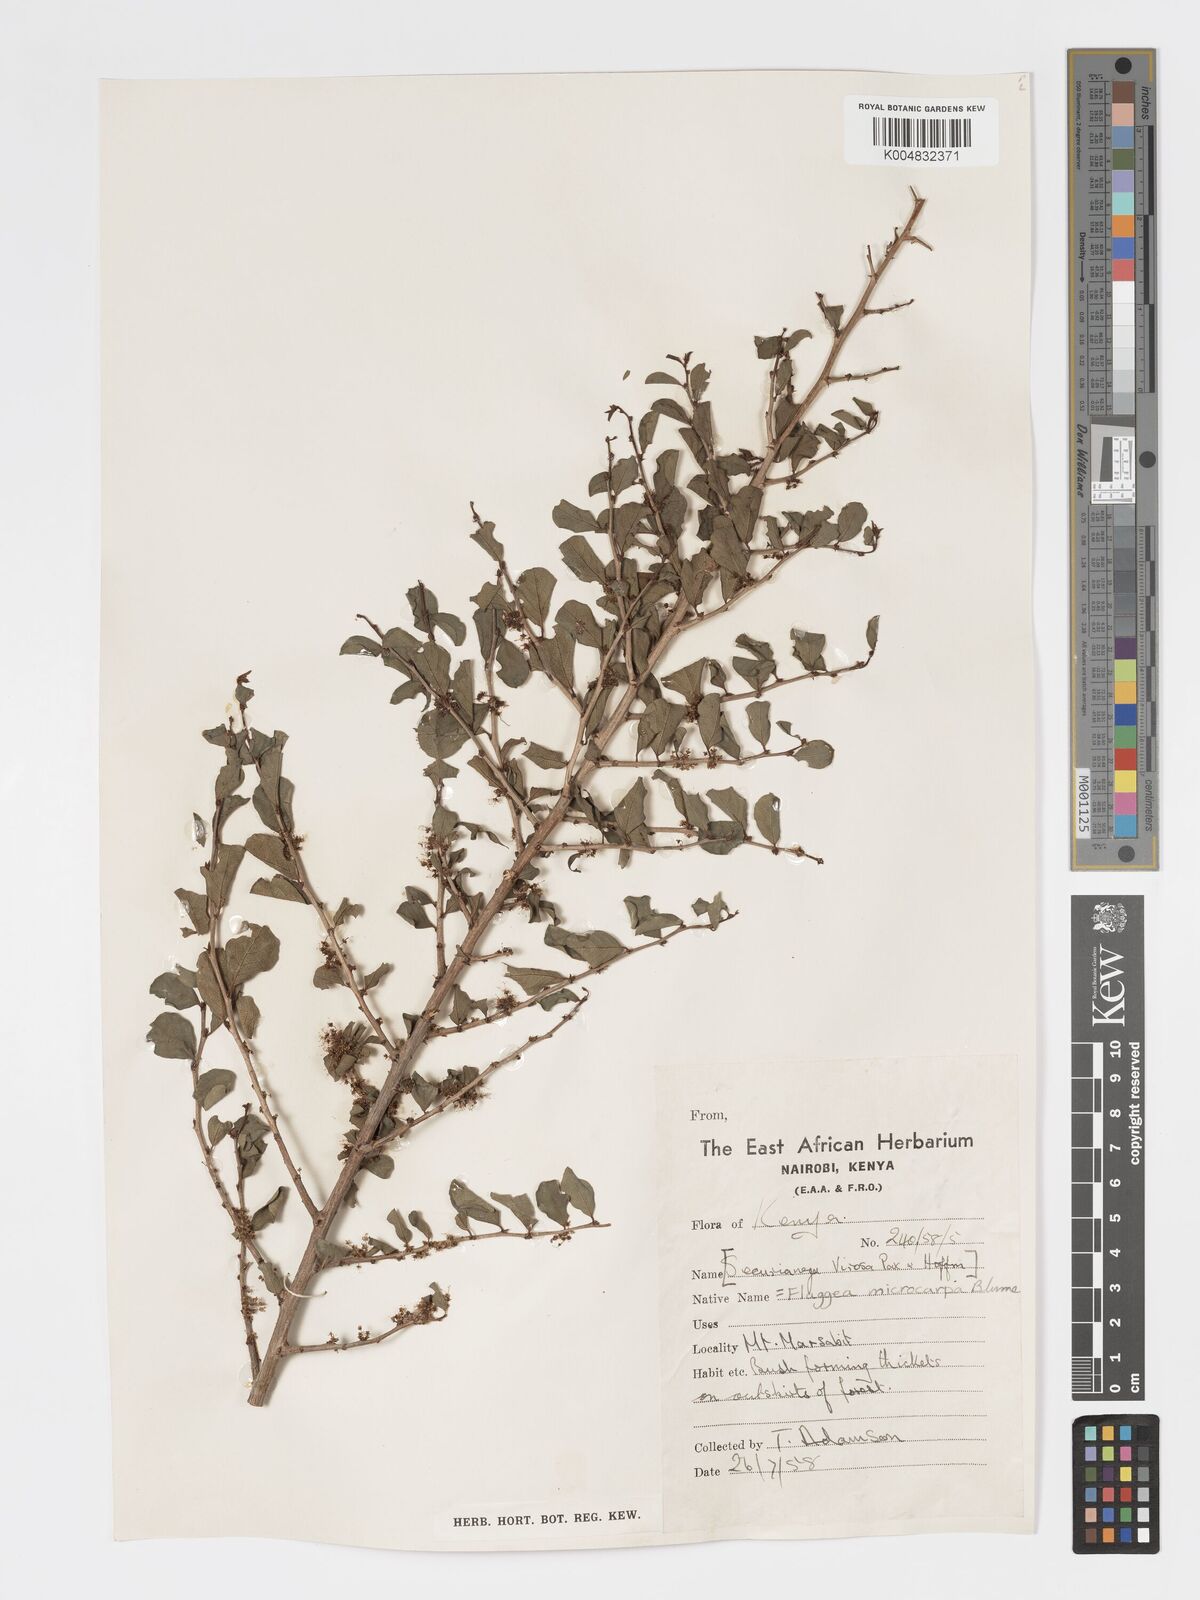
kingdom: Plantae
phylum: Tracheophyta
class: Magnoliopsida
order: Malpighiales
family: Phyllanthaceae
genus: Flueggea
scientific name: Flueggea virosa
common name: Common bushweed
